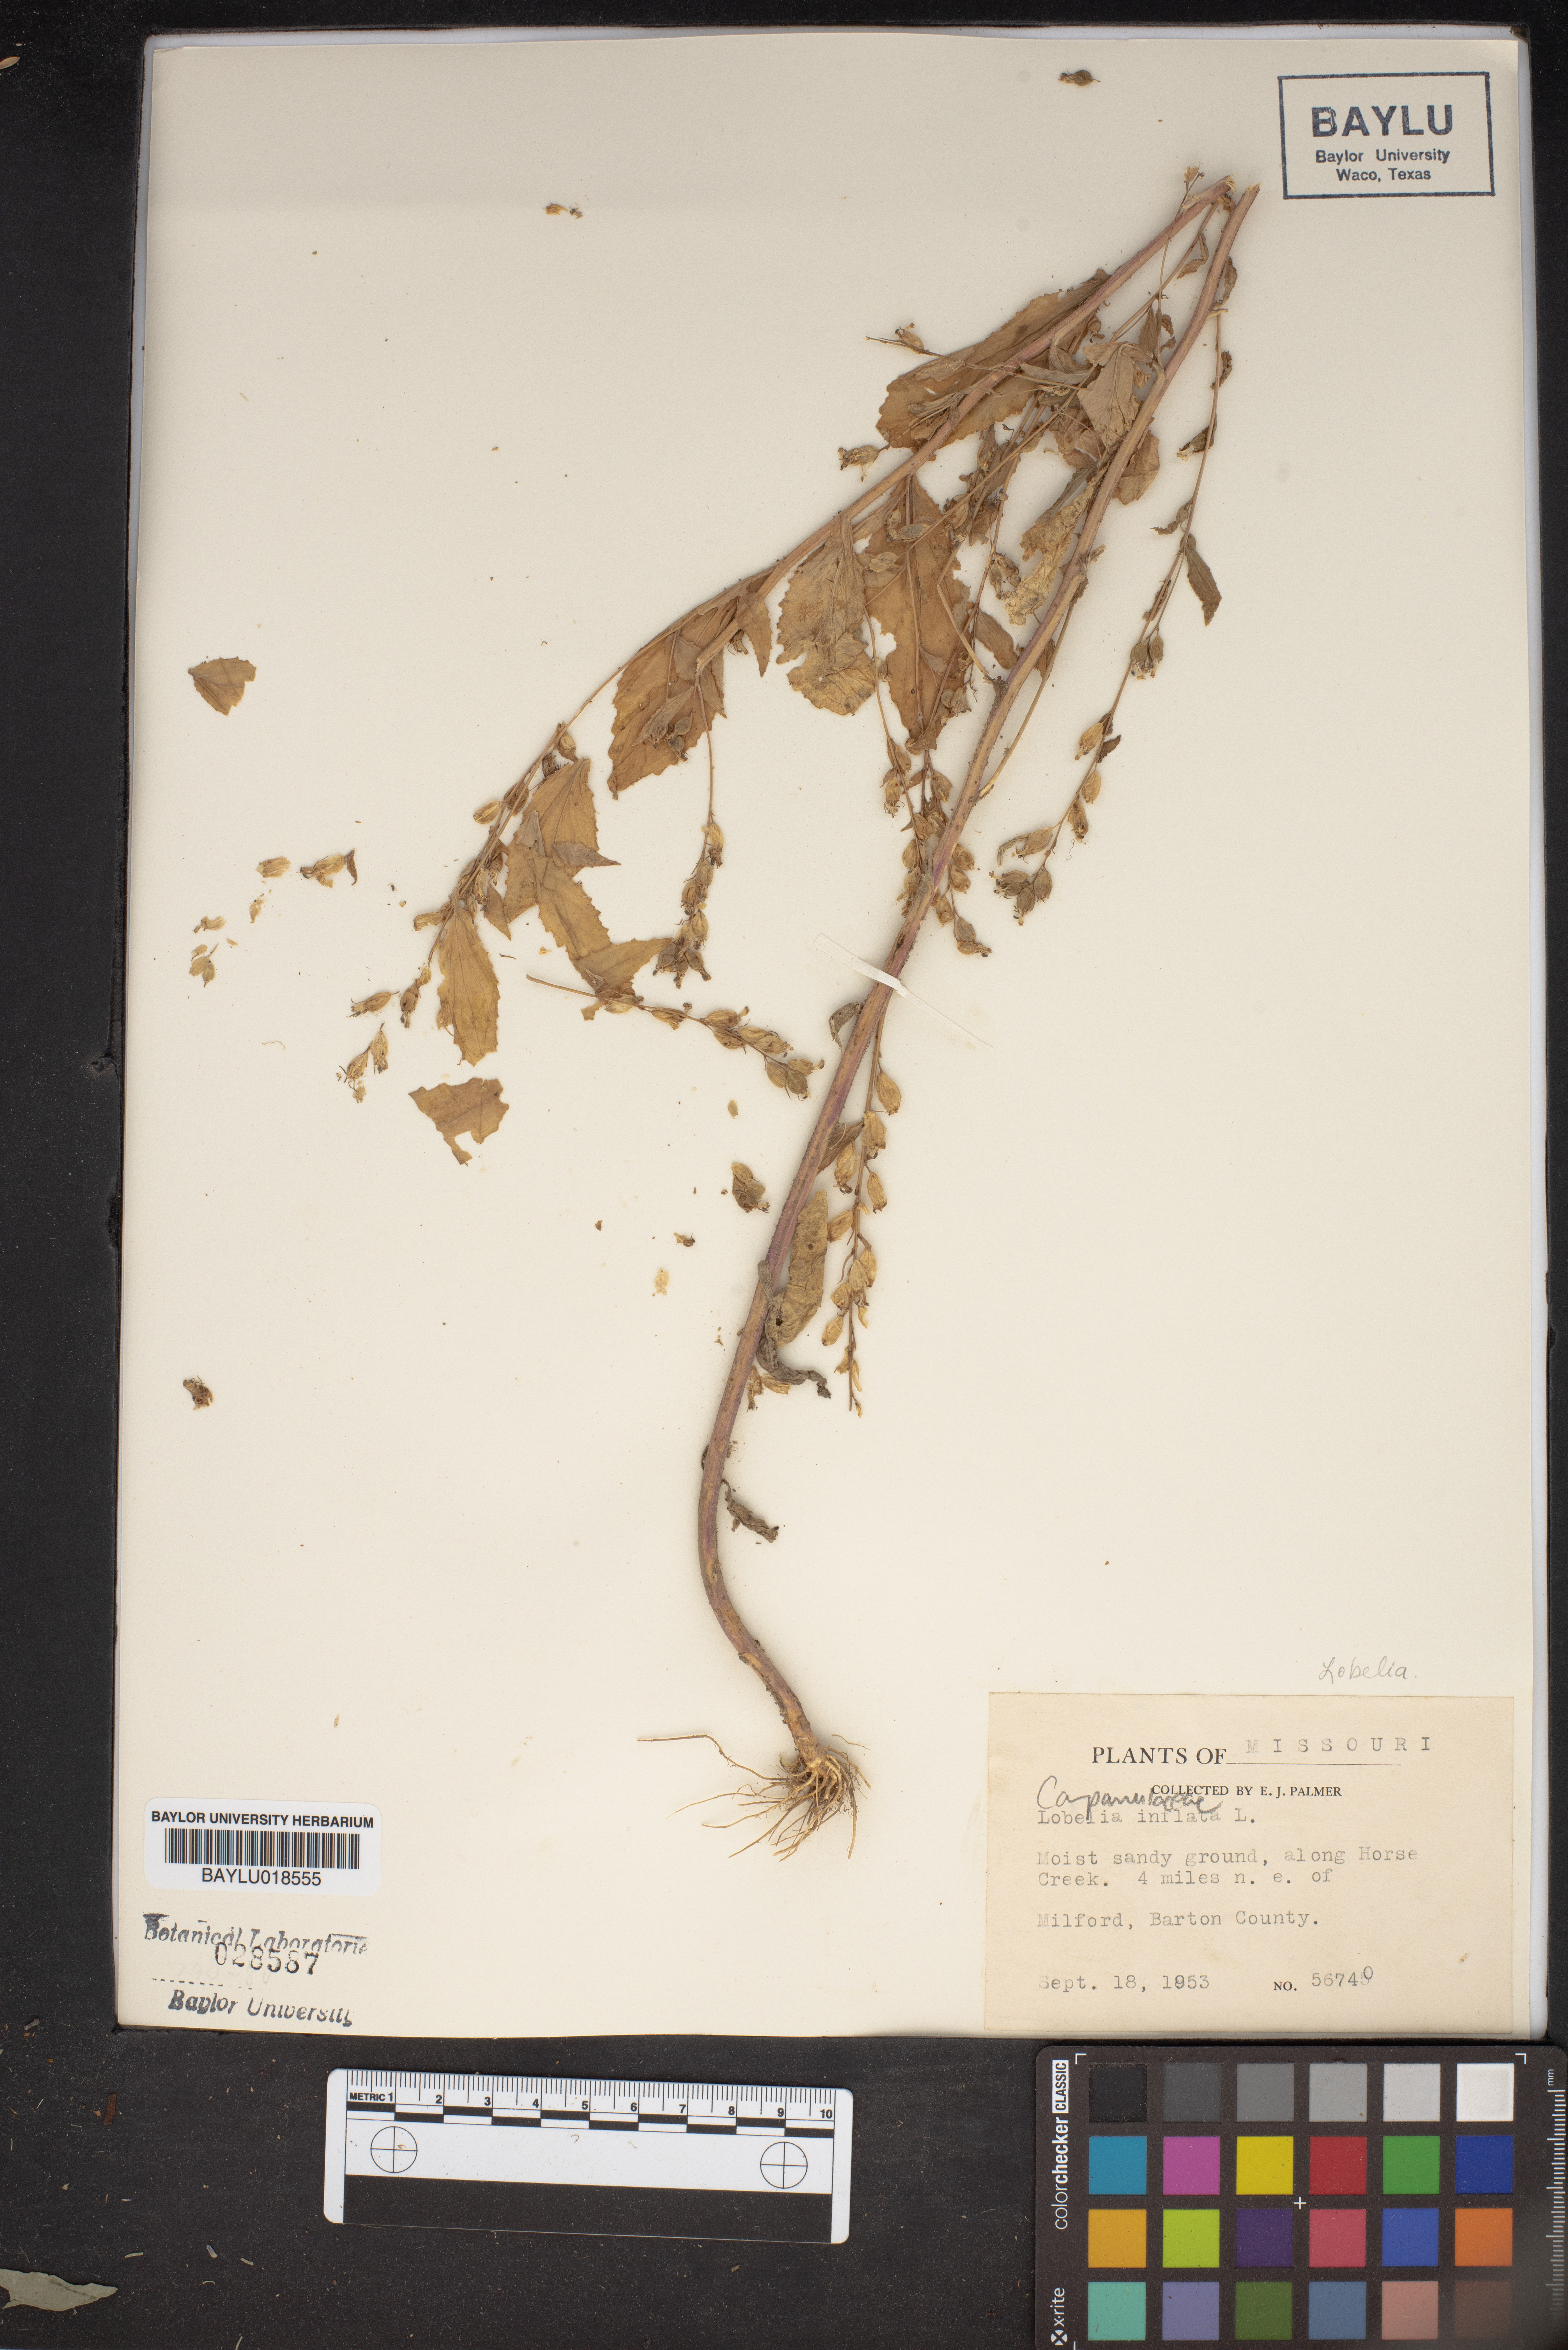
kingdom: Plantae
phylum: Tracheophyta
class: Magnoliopsida
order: Asterales
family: Campanulaceae
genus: Lobelia
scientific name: Lobelia inflata
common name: Indian tobacco
